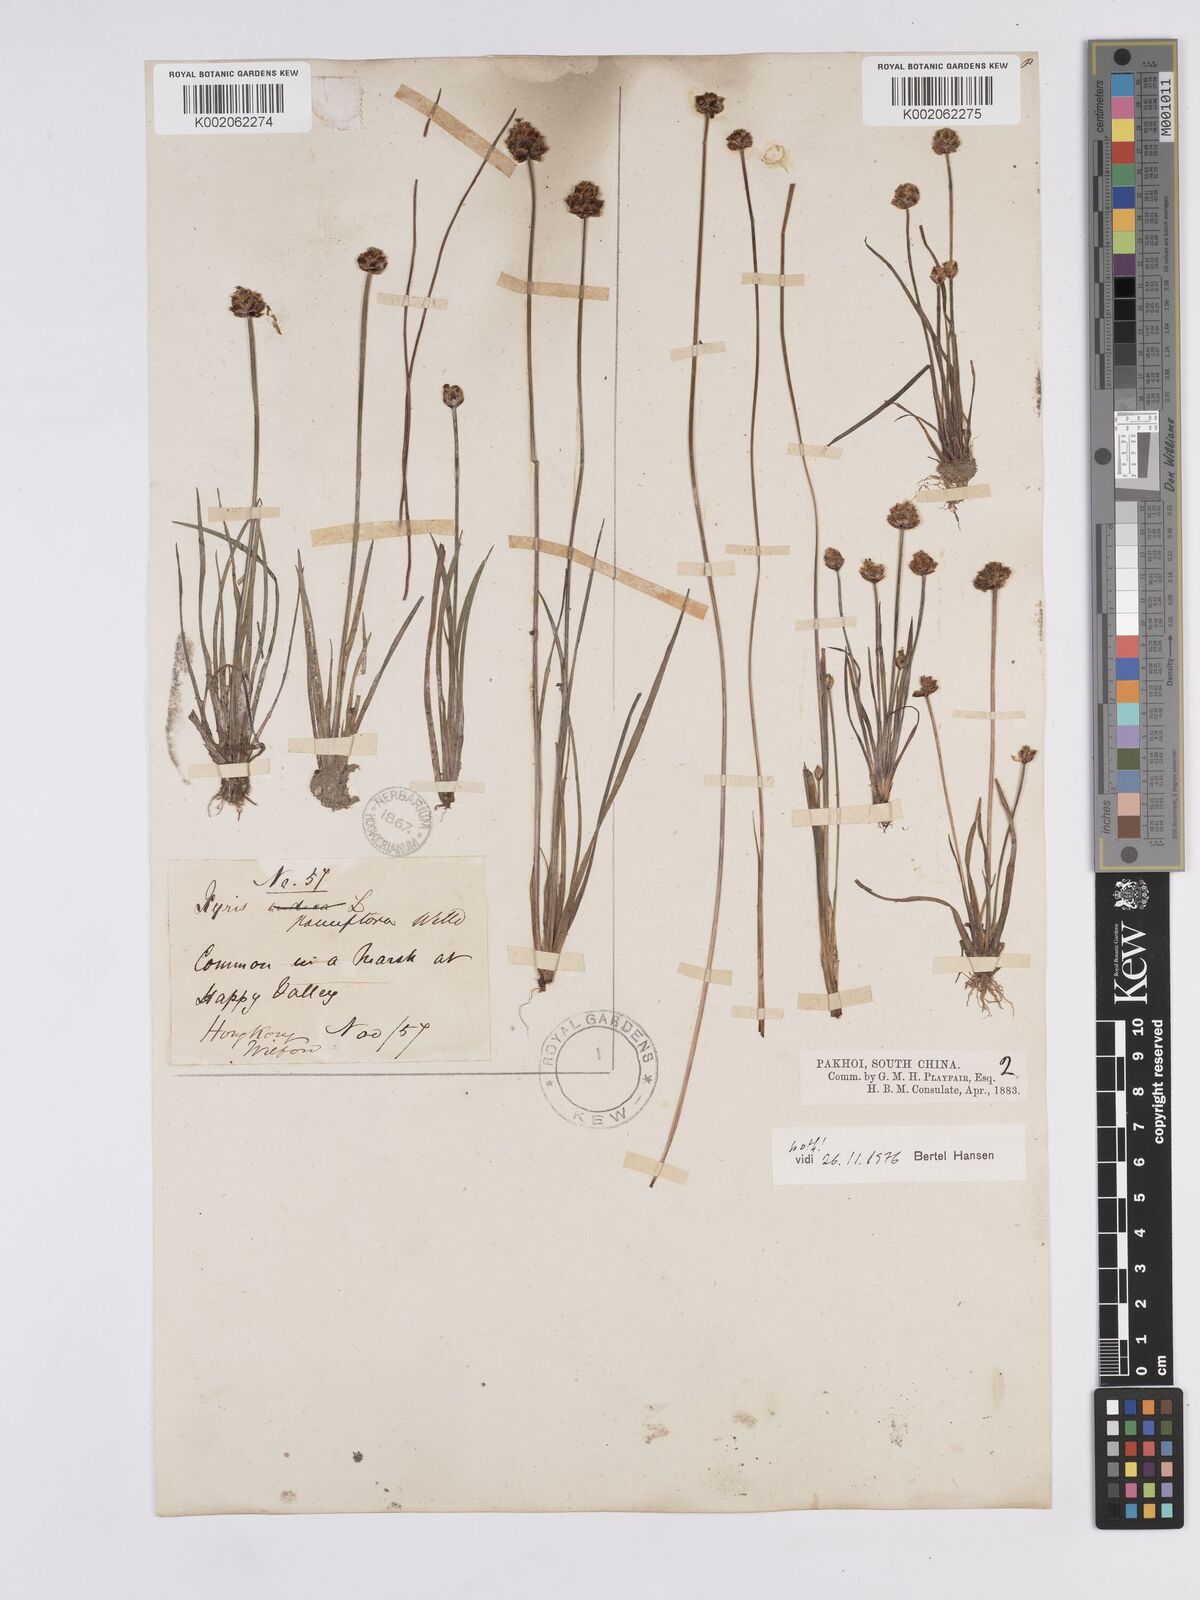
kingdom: Plantae
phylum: Tracheophyta
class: Liliopsida
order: Poales
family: Xyridaceae
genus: Xyris
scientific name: Xyris pauciflora
